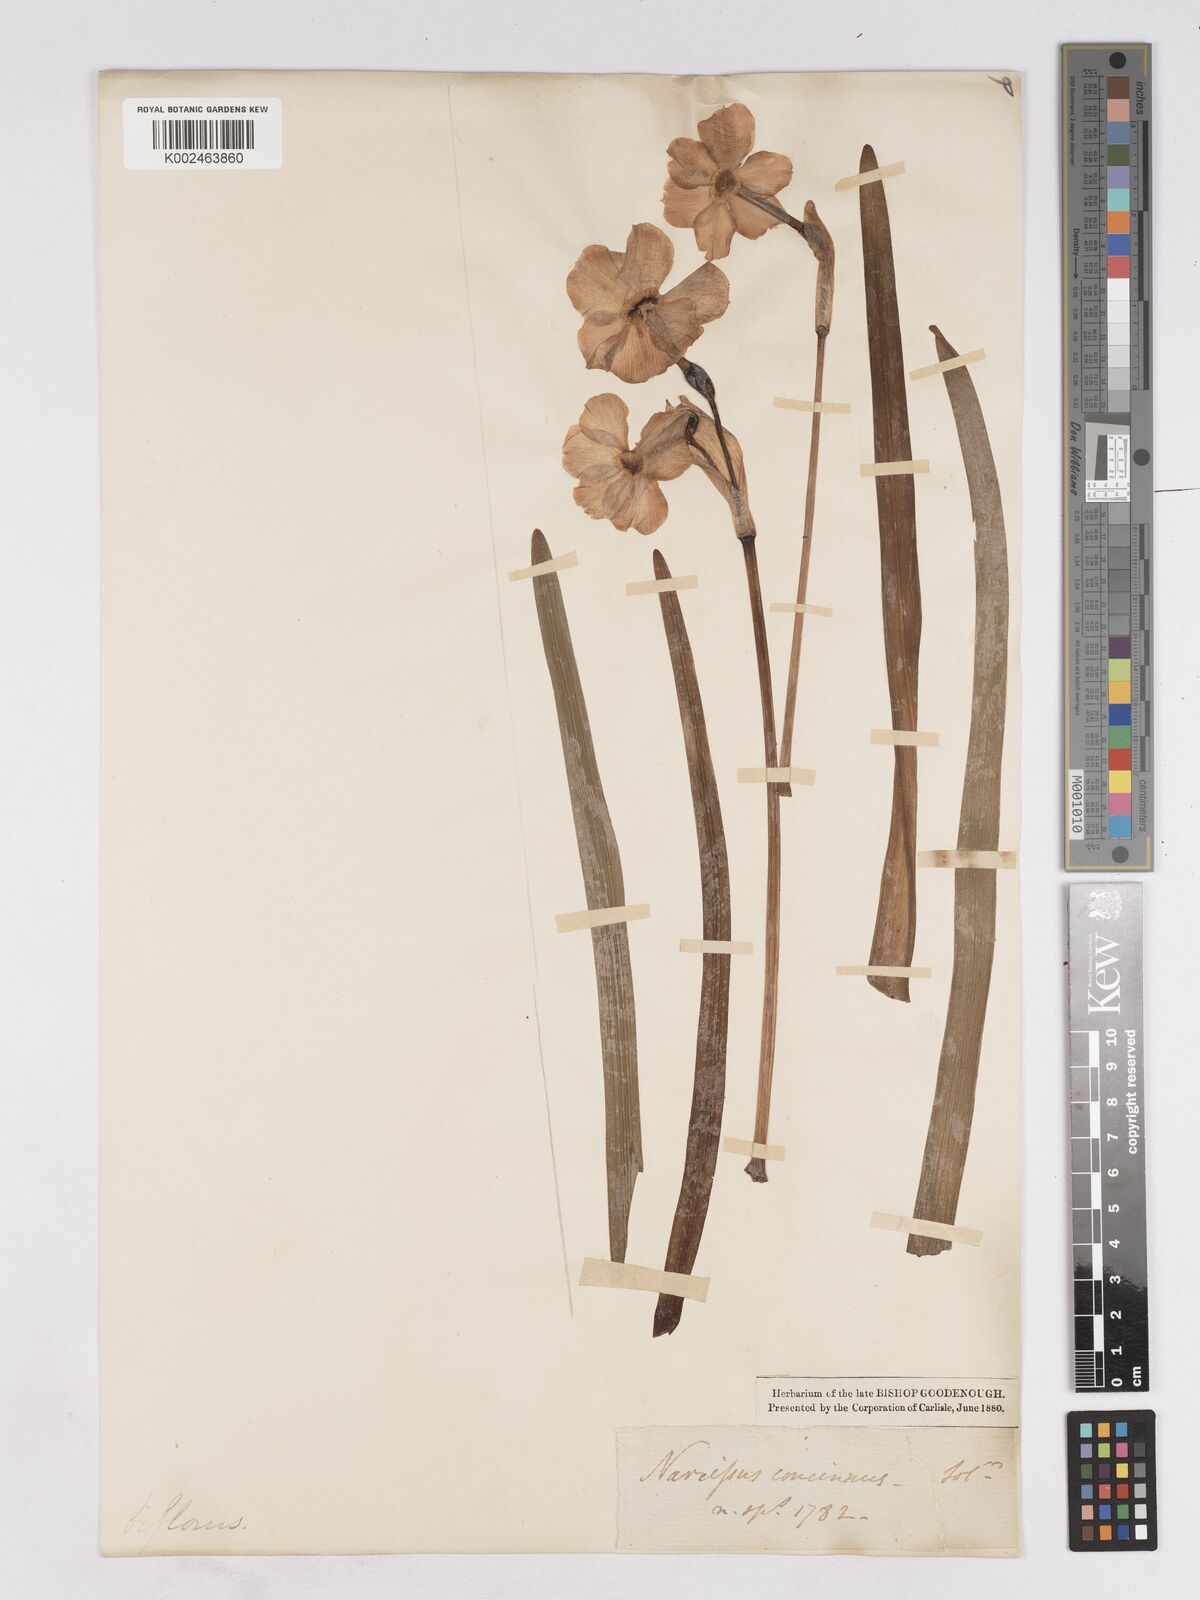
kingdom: Plantae
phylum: Tracheophyta
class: Liliopsida
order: Asparagales
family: Amaryllidaceae
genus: Narcissus
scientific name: Narcissus medioluteus
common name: Primrose-peerless
